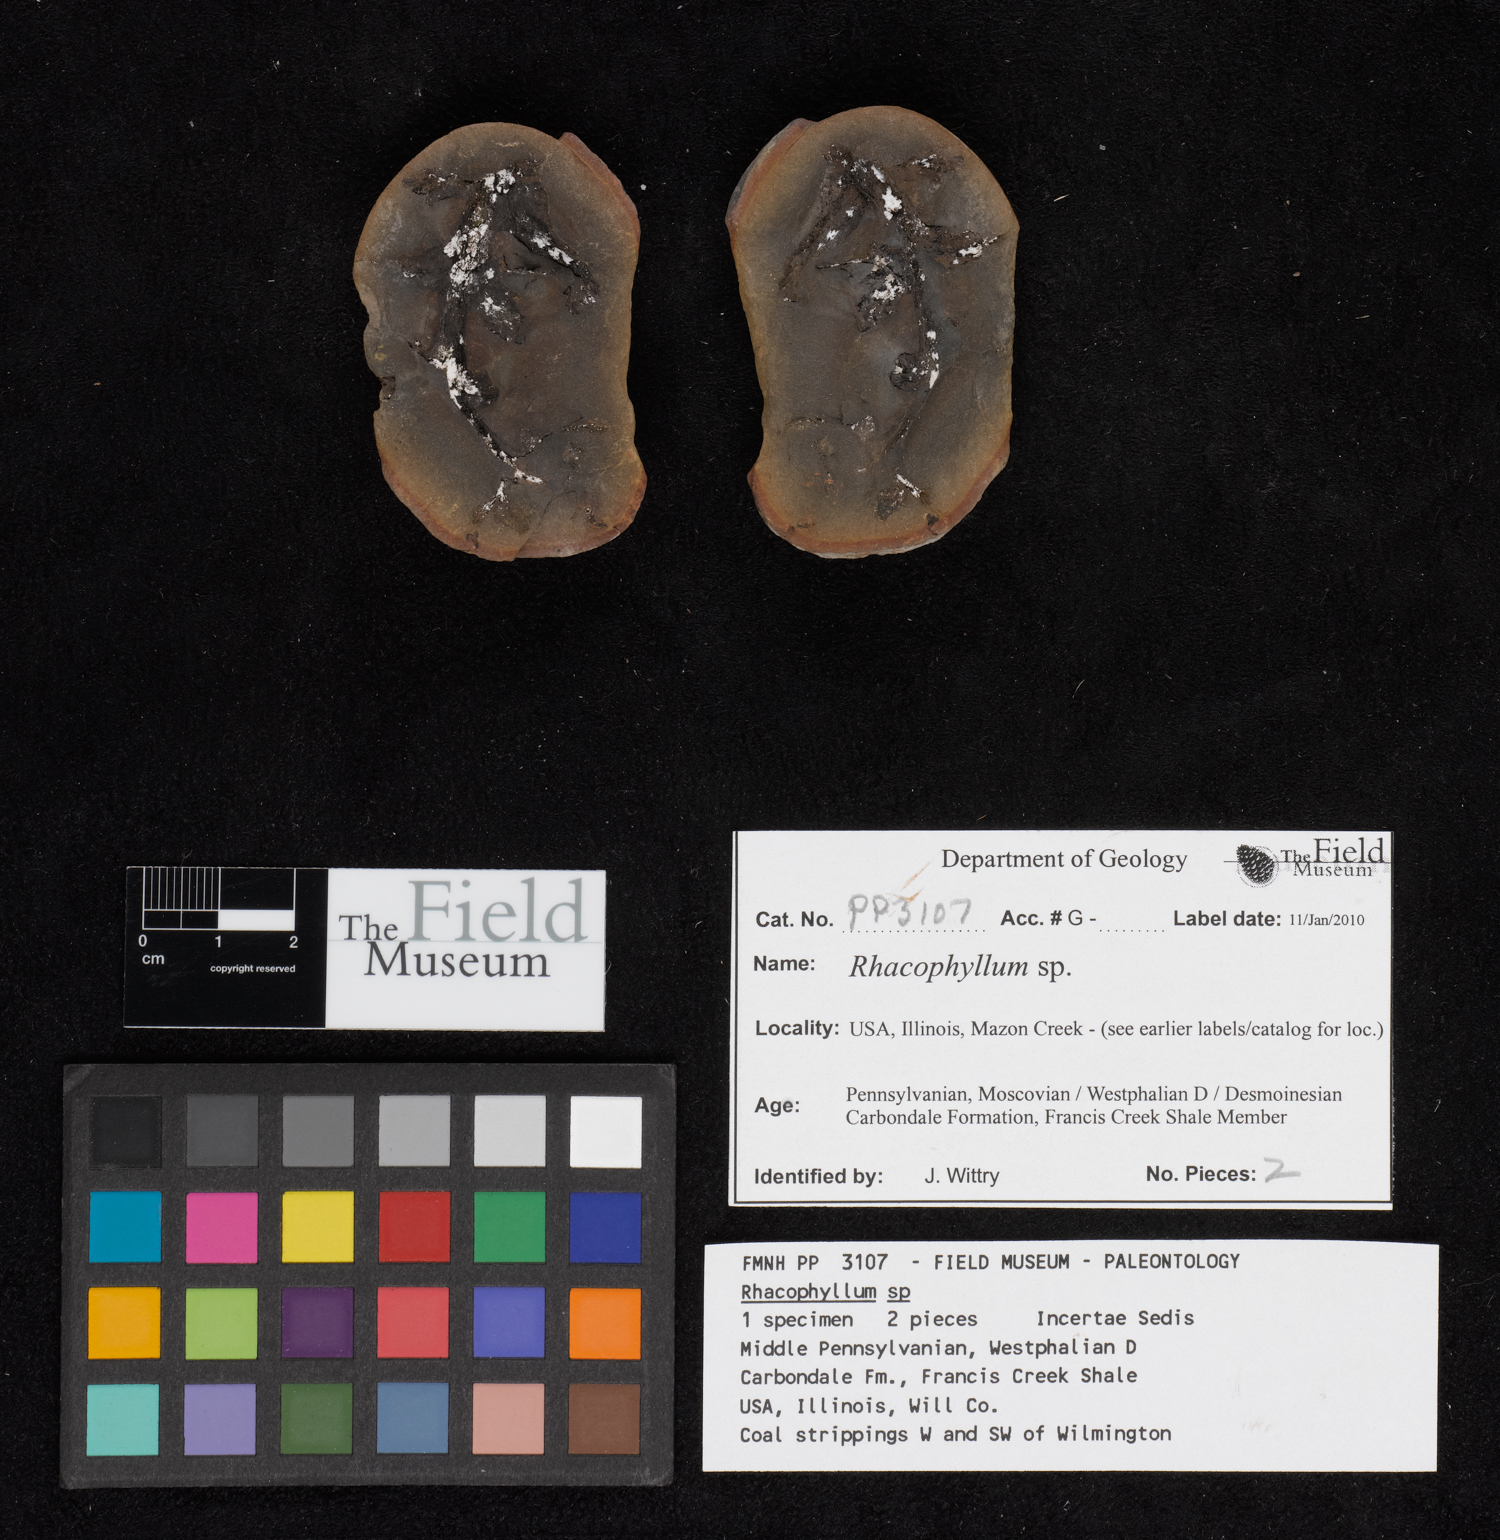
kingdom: Plantae
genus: Rhacophyllum
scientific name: Rhacophyllum
